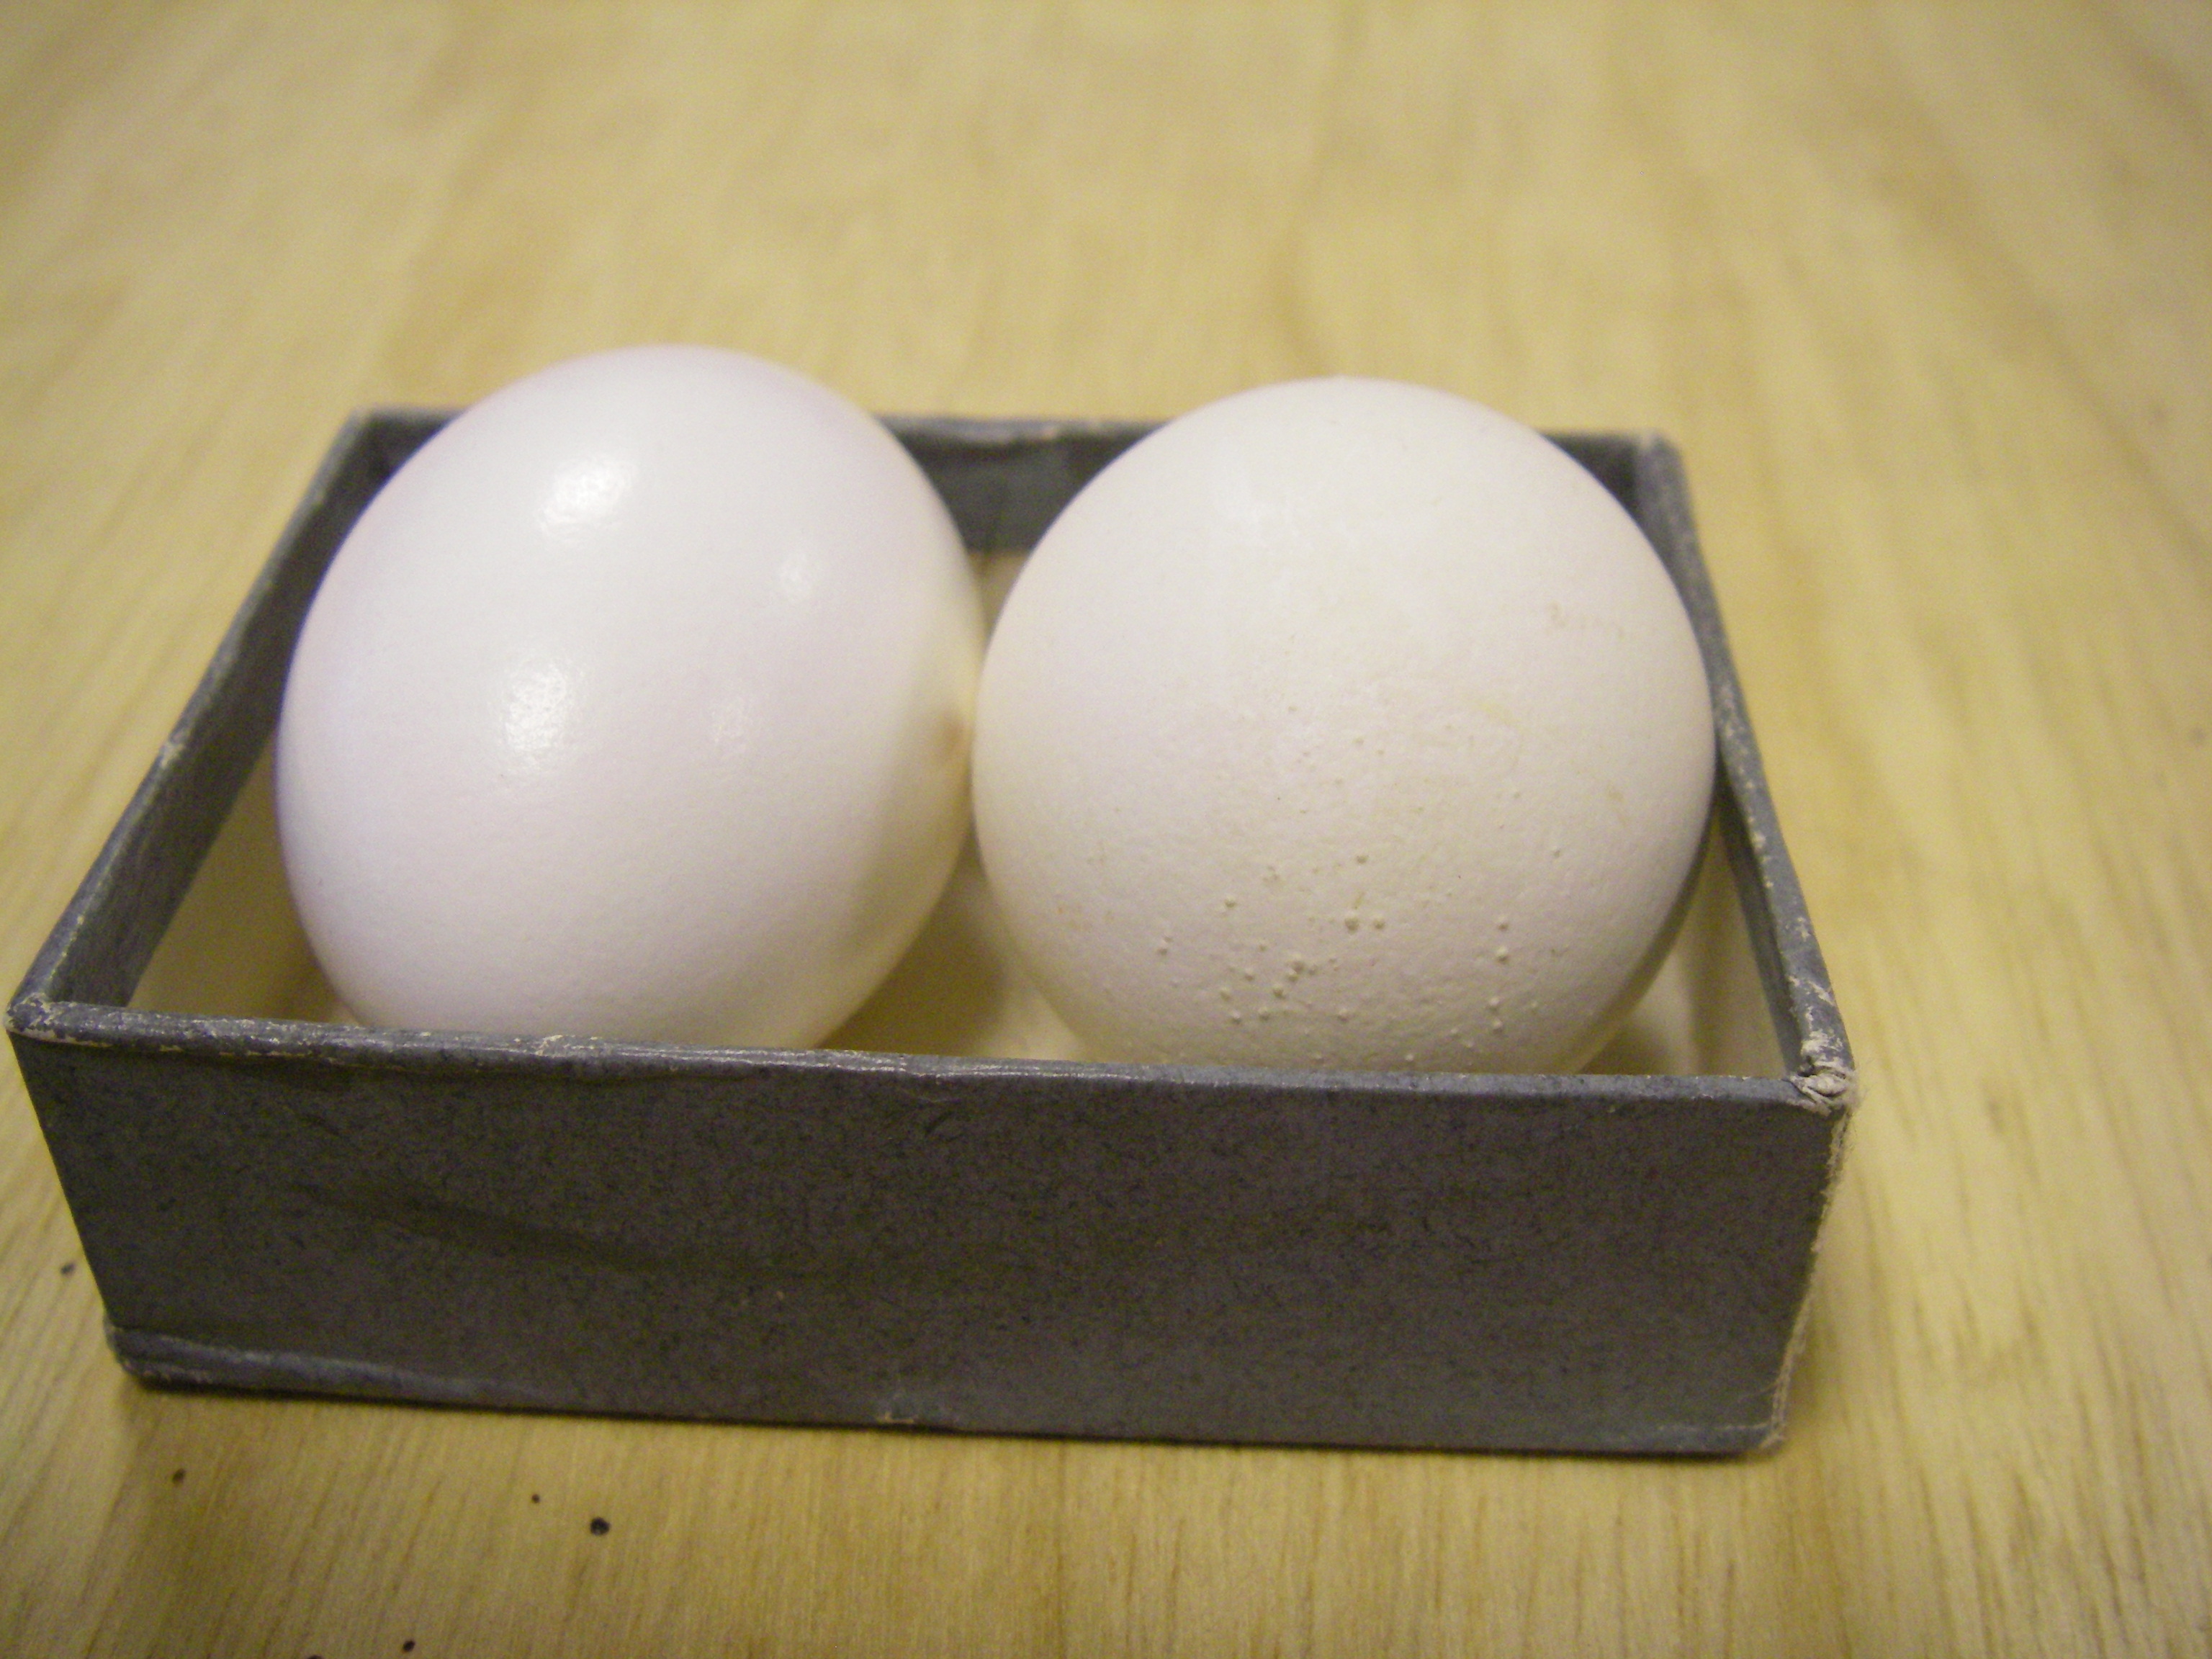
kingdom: Animalia
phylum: Chordata
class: Aves
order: Columbiformes
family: Columbidae
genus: Columba
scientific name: Columba livia
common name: Rock pigeon
